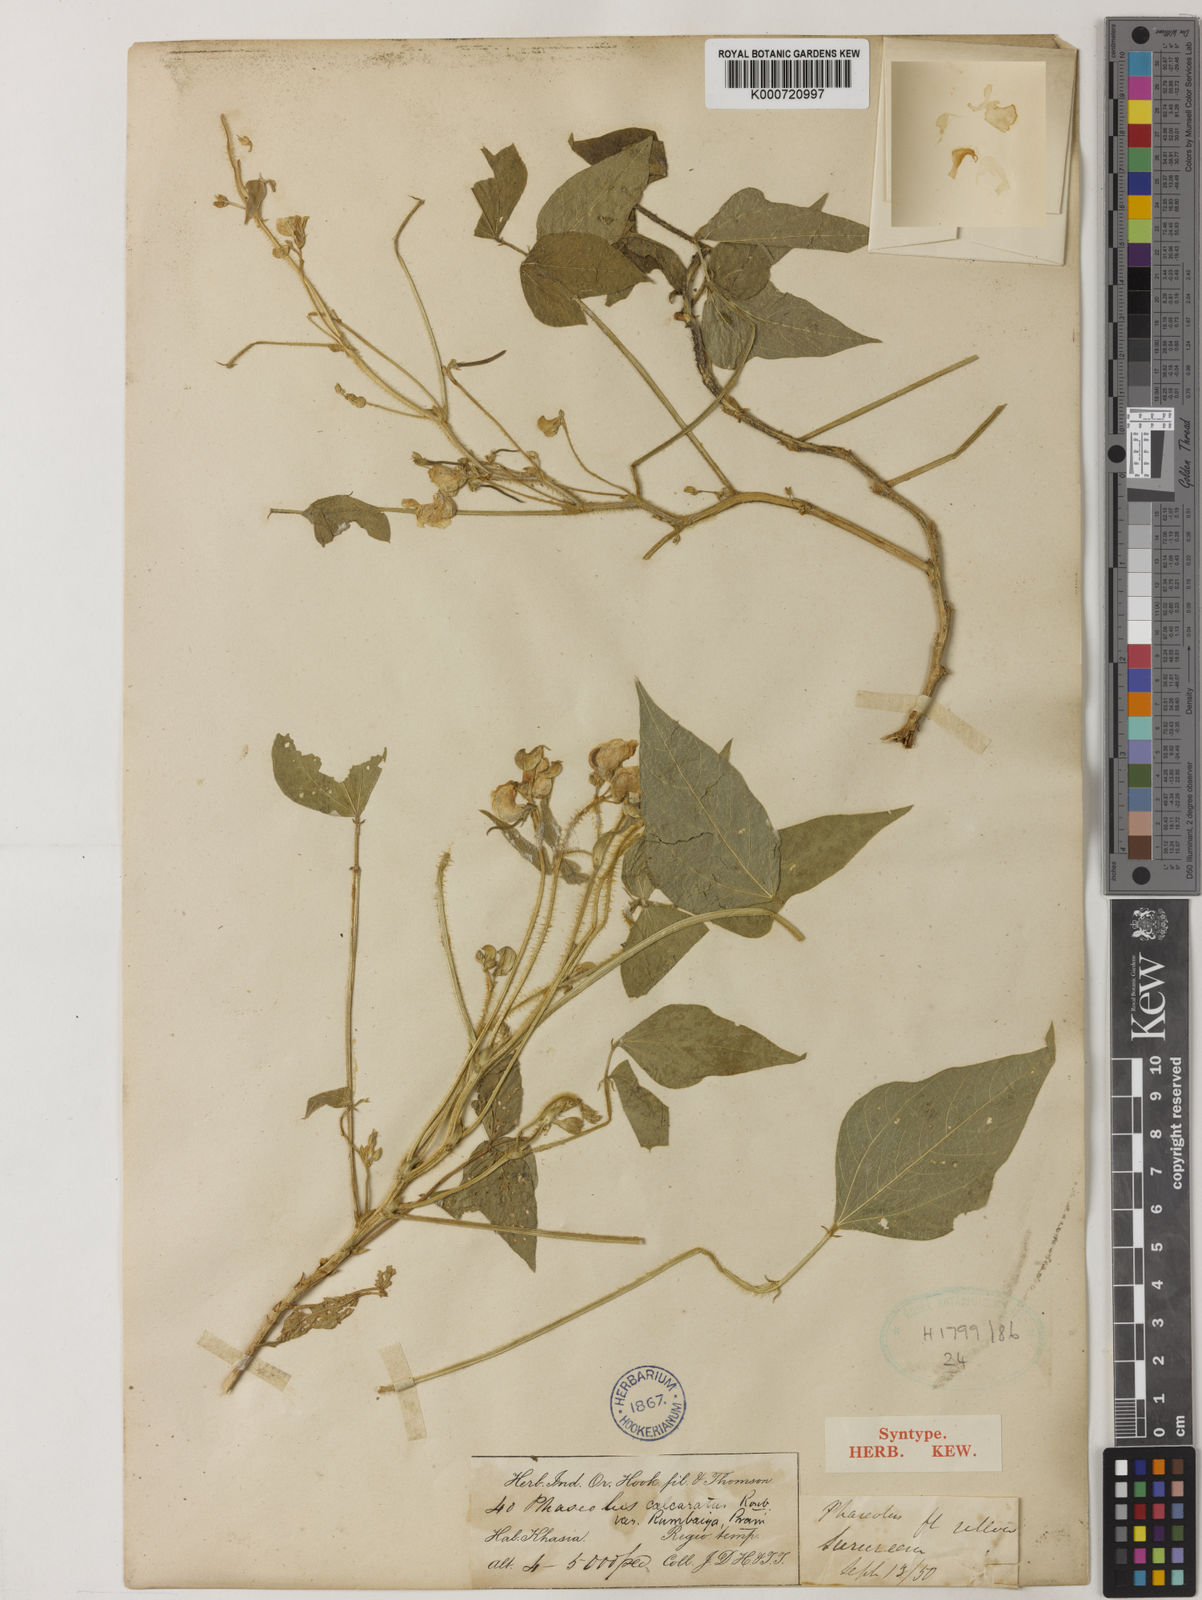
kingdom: Plantae
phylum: Tracheophyta
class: Magnoliopsida
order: Fabales
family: Fabaceae
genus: Vigna
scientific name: Vigna umbellata
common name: Oriental-bean
